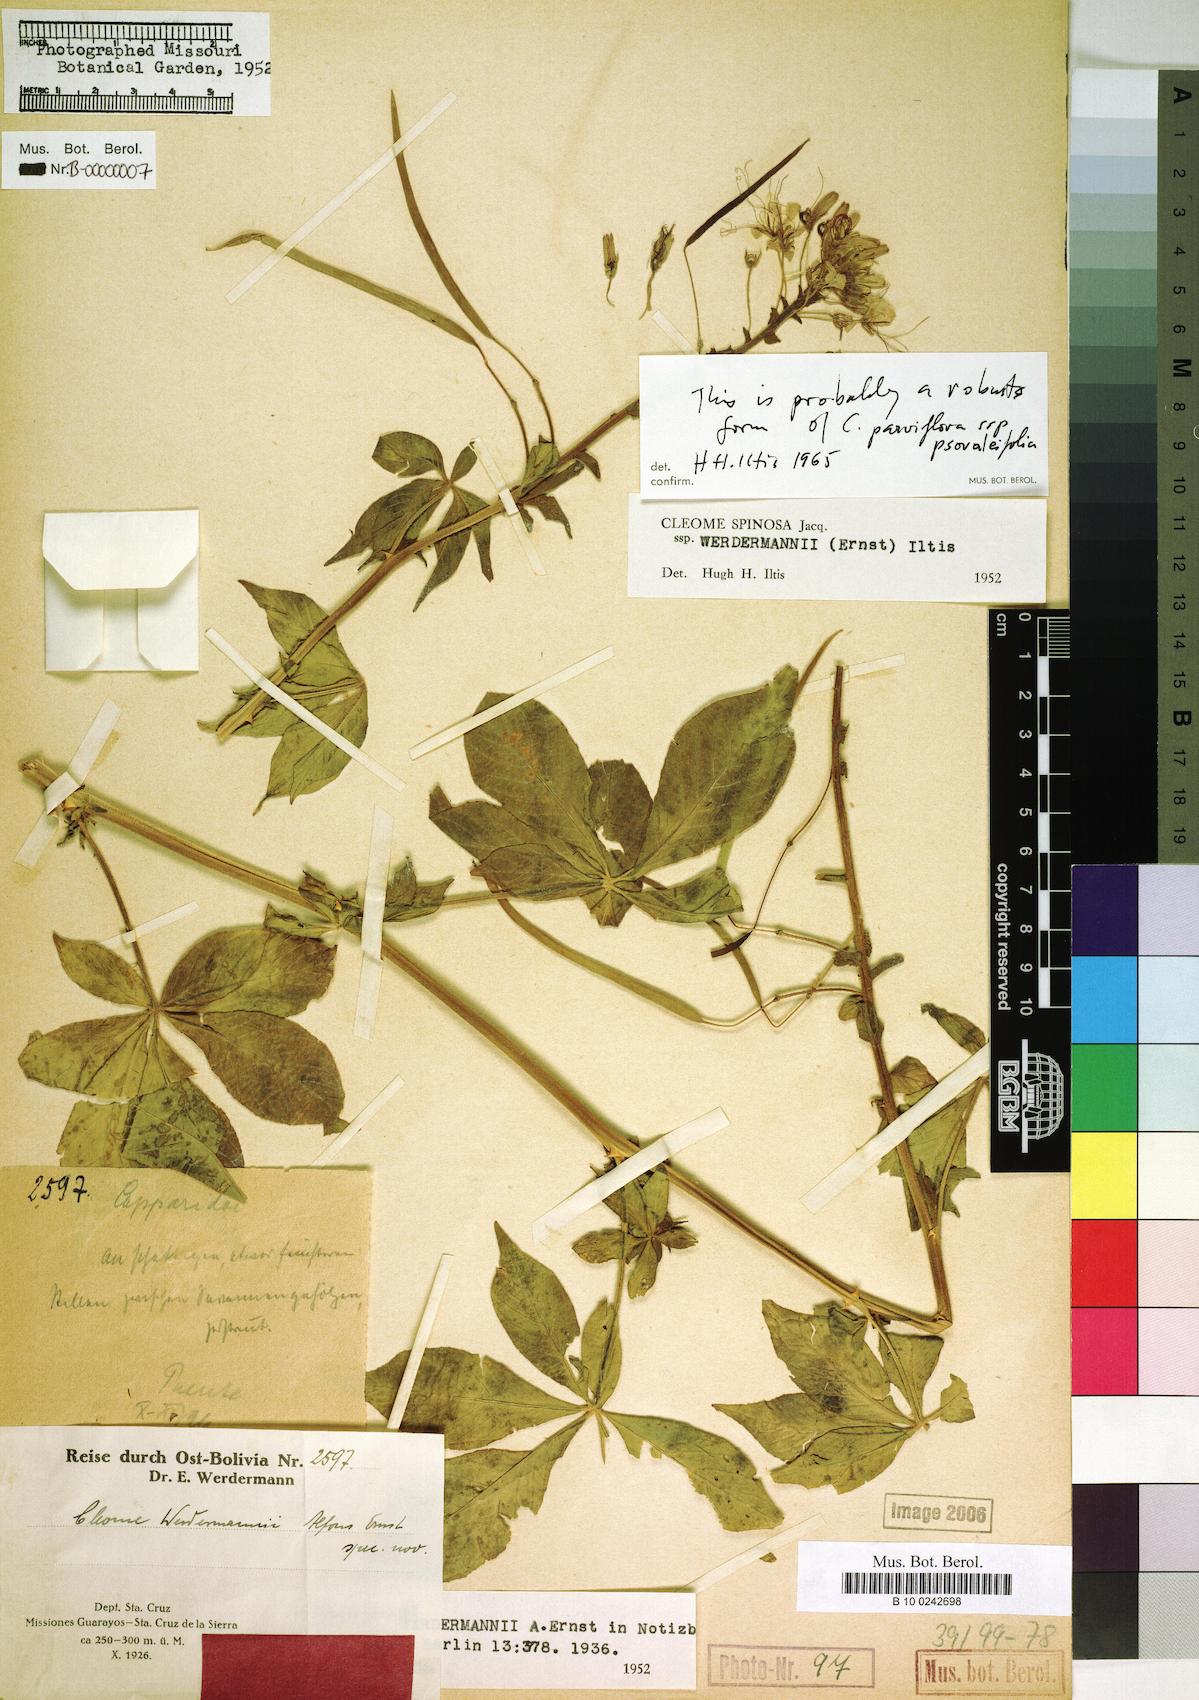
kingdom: Plantae
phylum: Tracheophyta
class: Magnoliopsida
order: Brassicales
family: Cleomaceae
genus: Tarenaya
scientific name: Tarenaya psoraleifolia
